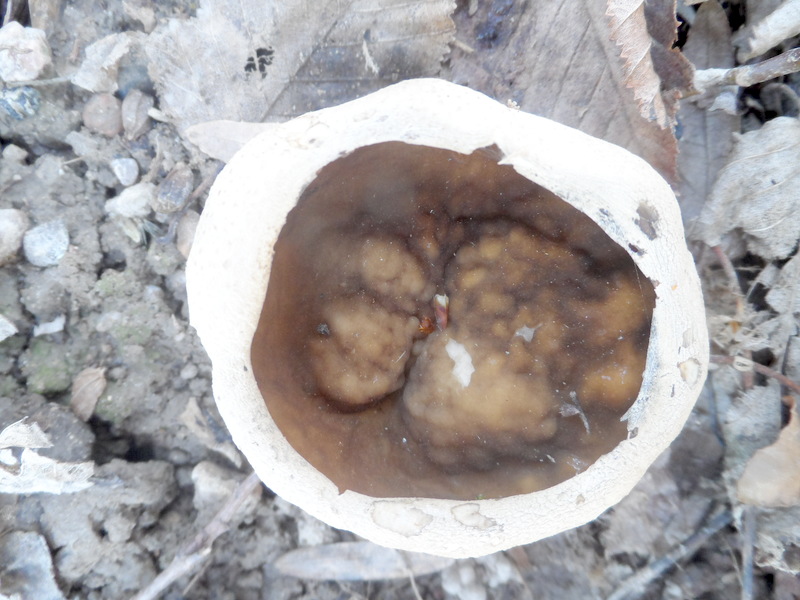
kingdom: Fungi
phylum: Ascomycota
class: Pezizomycetes
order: Pezizales
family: Morchellaceae
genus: Disciotis
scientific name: Disciotis venosa
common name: Bleach cup
